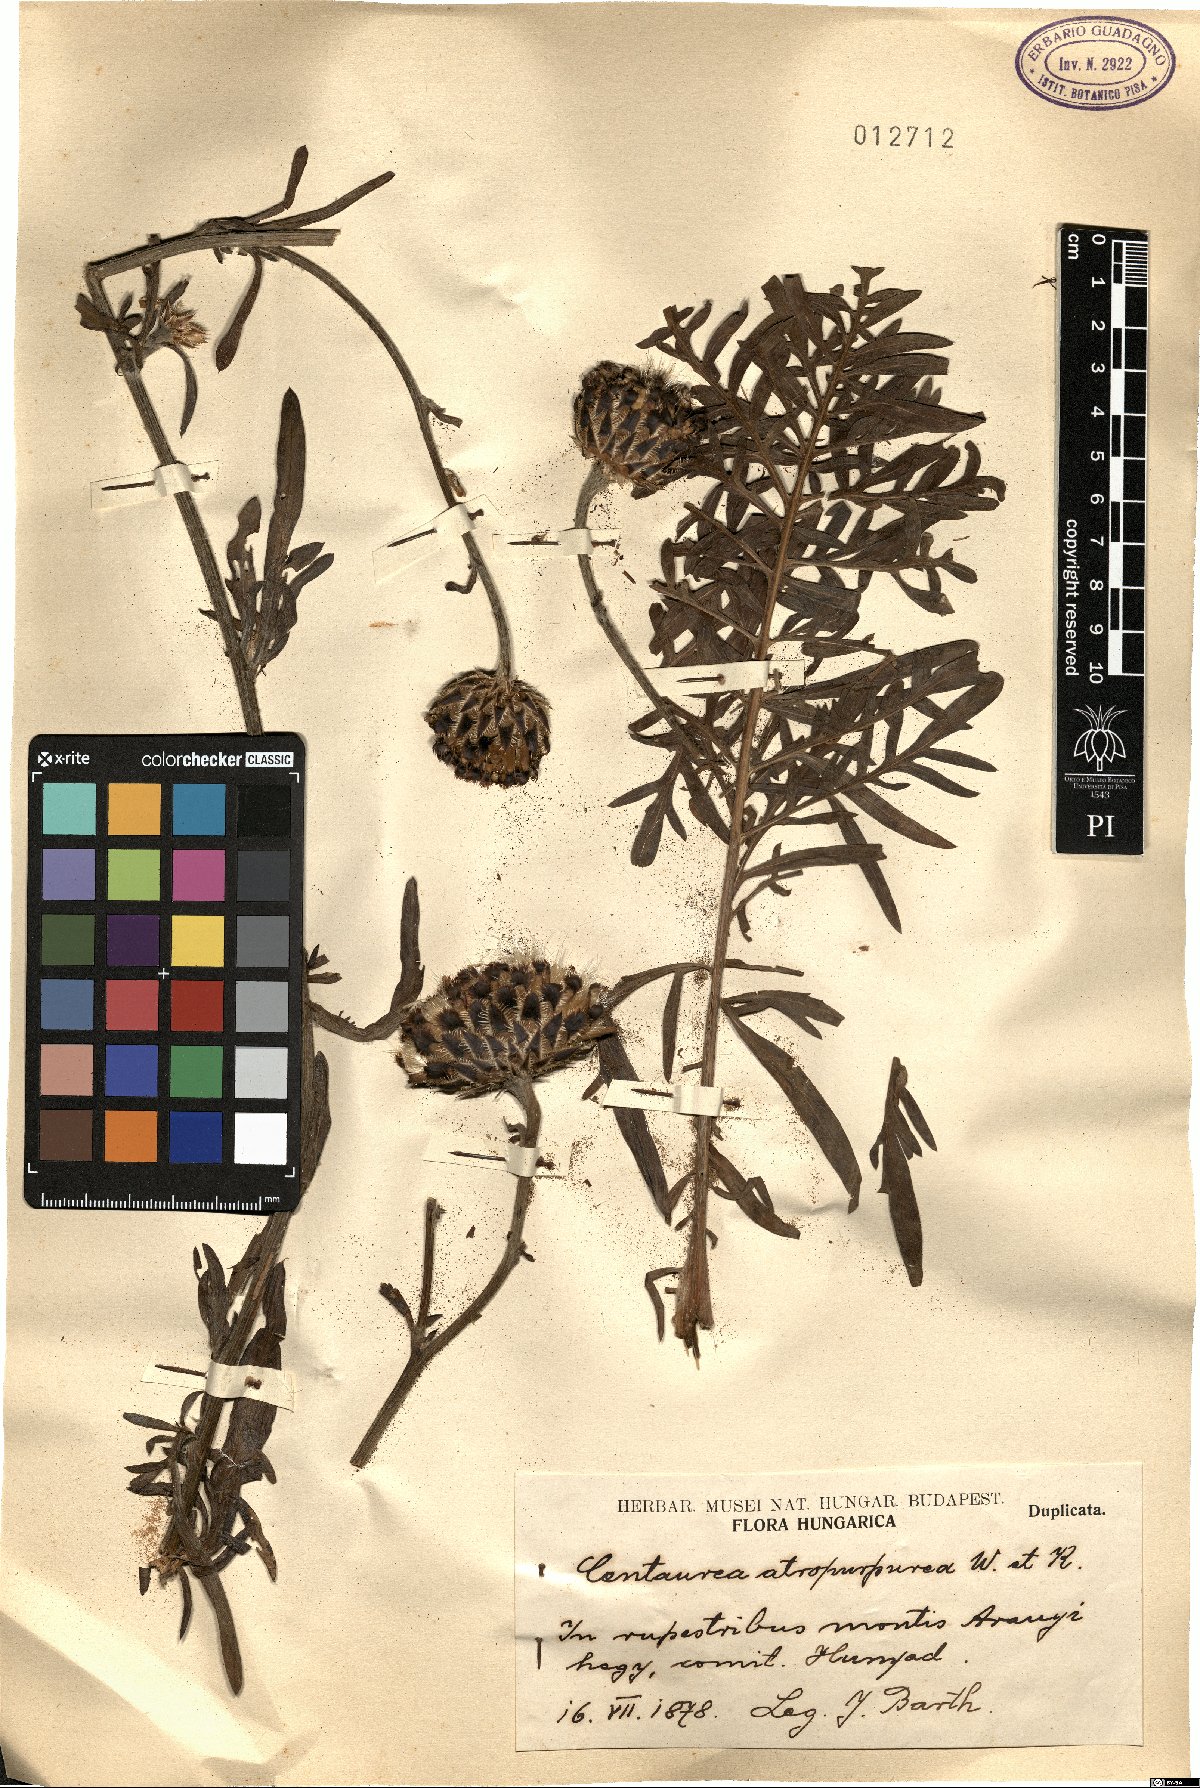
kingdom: Plantae
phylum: Tracheophyta
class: Magnoliopsida
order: Asterales
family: Asteraceae
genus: Centaurea
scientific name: Centaurea calocephala
